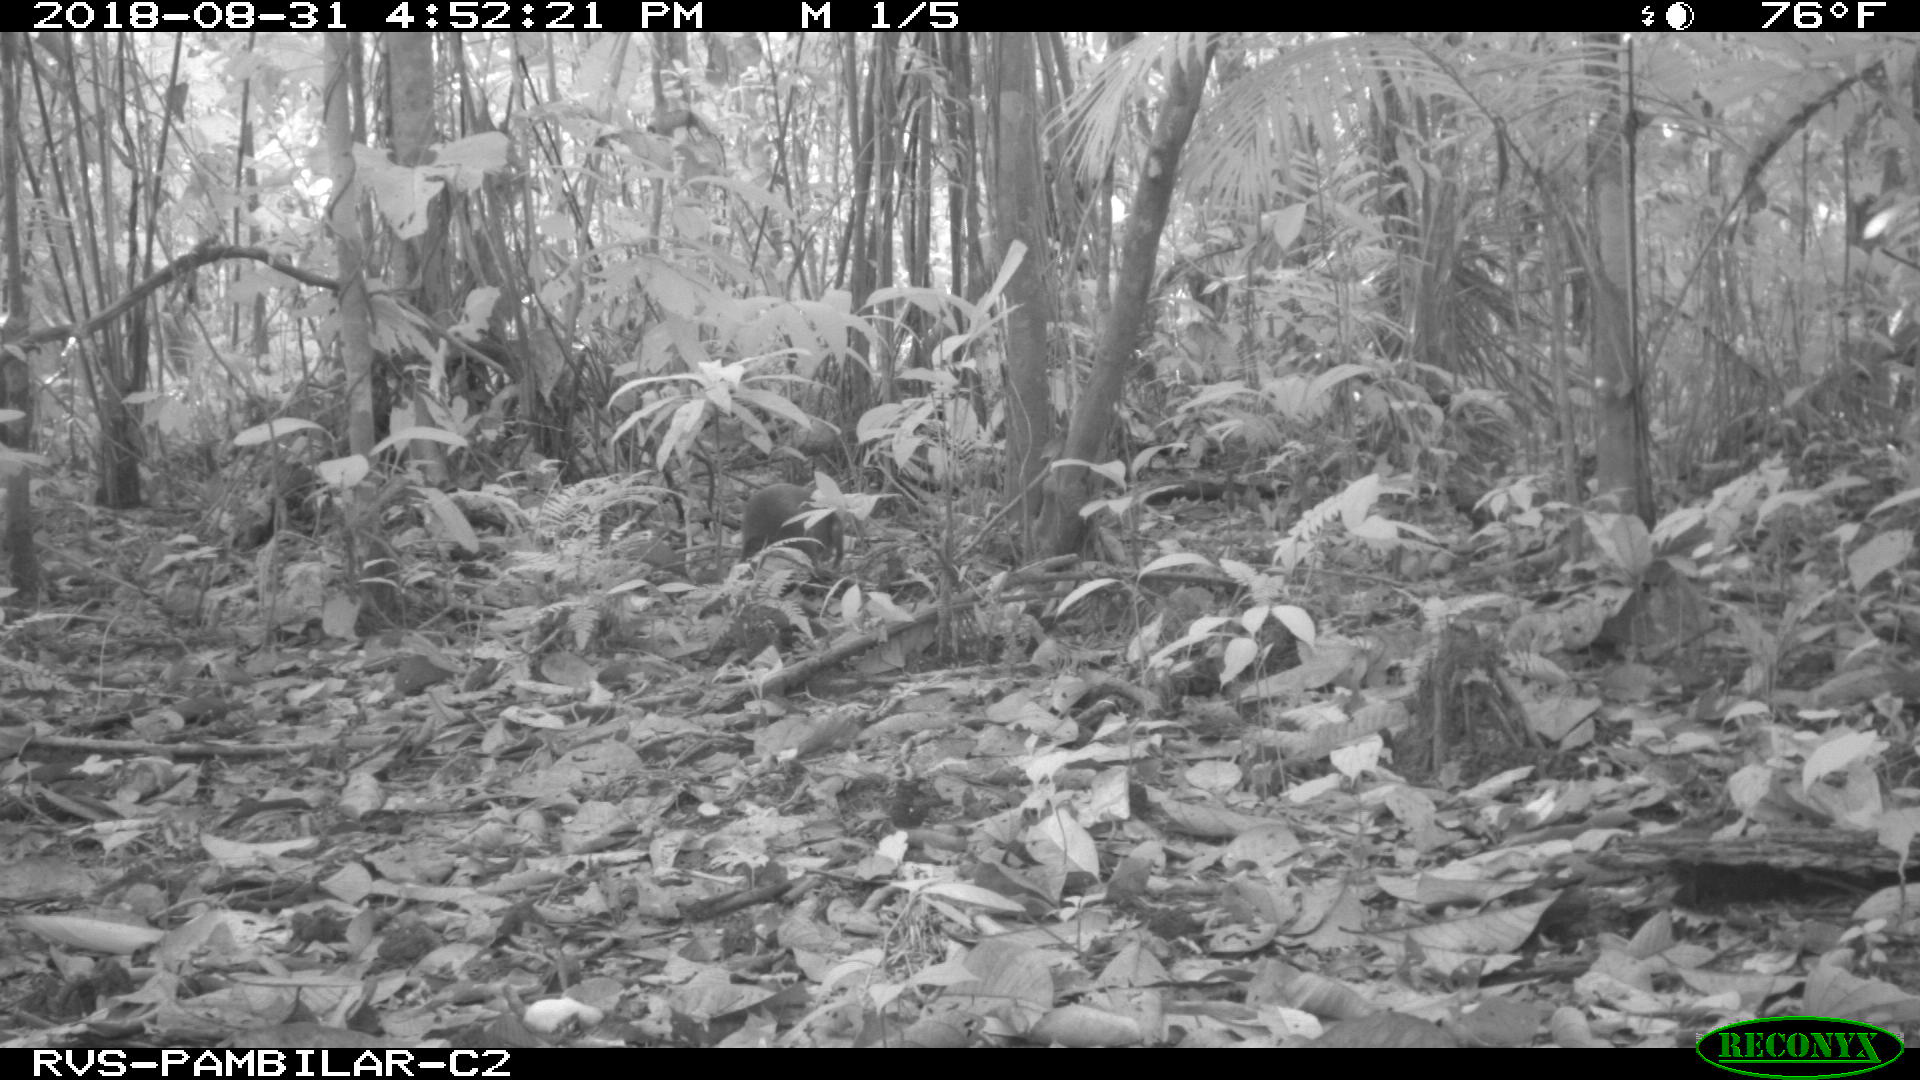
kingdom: Animalia
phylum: Chordata
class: Mammalia
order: Rodentia
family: Dasyproctidae
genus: Dasyprocta
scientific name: Dasyprocta punctata
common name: Central american agouti
